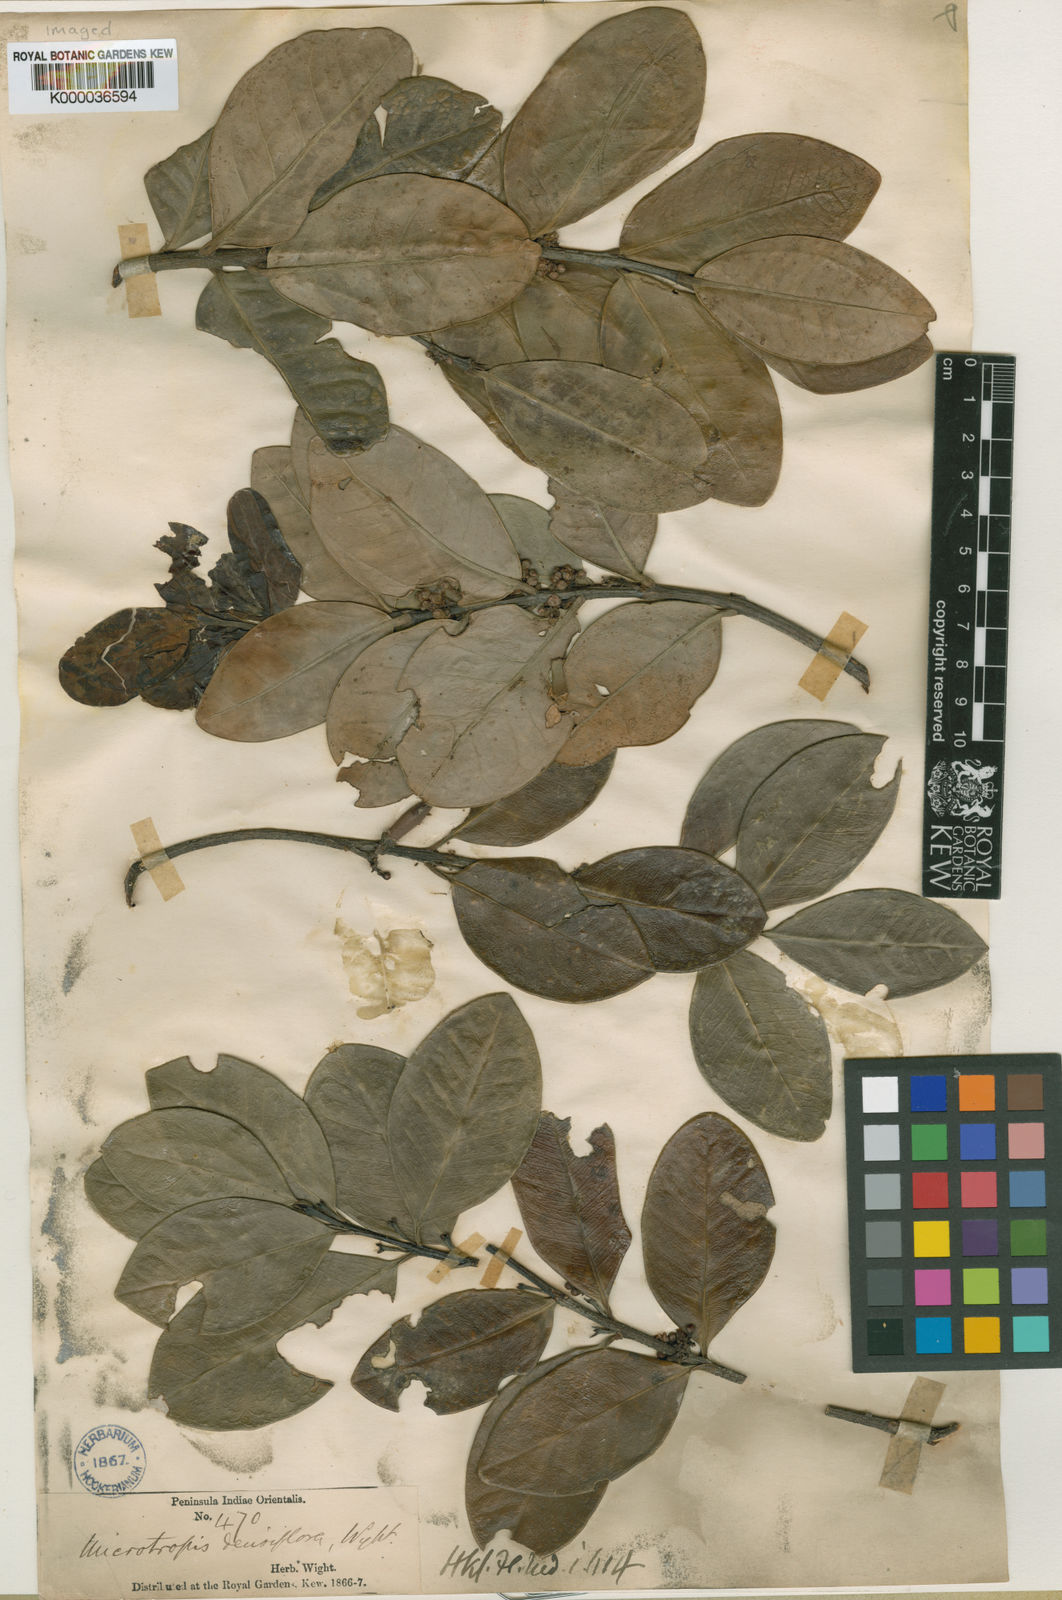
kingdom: Plantae
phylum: Tracheophyta
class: Magnoliopsida
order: Celastrales
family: Celastraceae
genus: Microtropis
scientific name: Microtropis microcarpa
